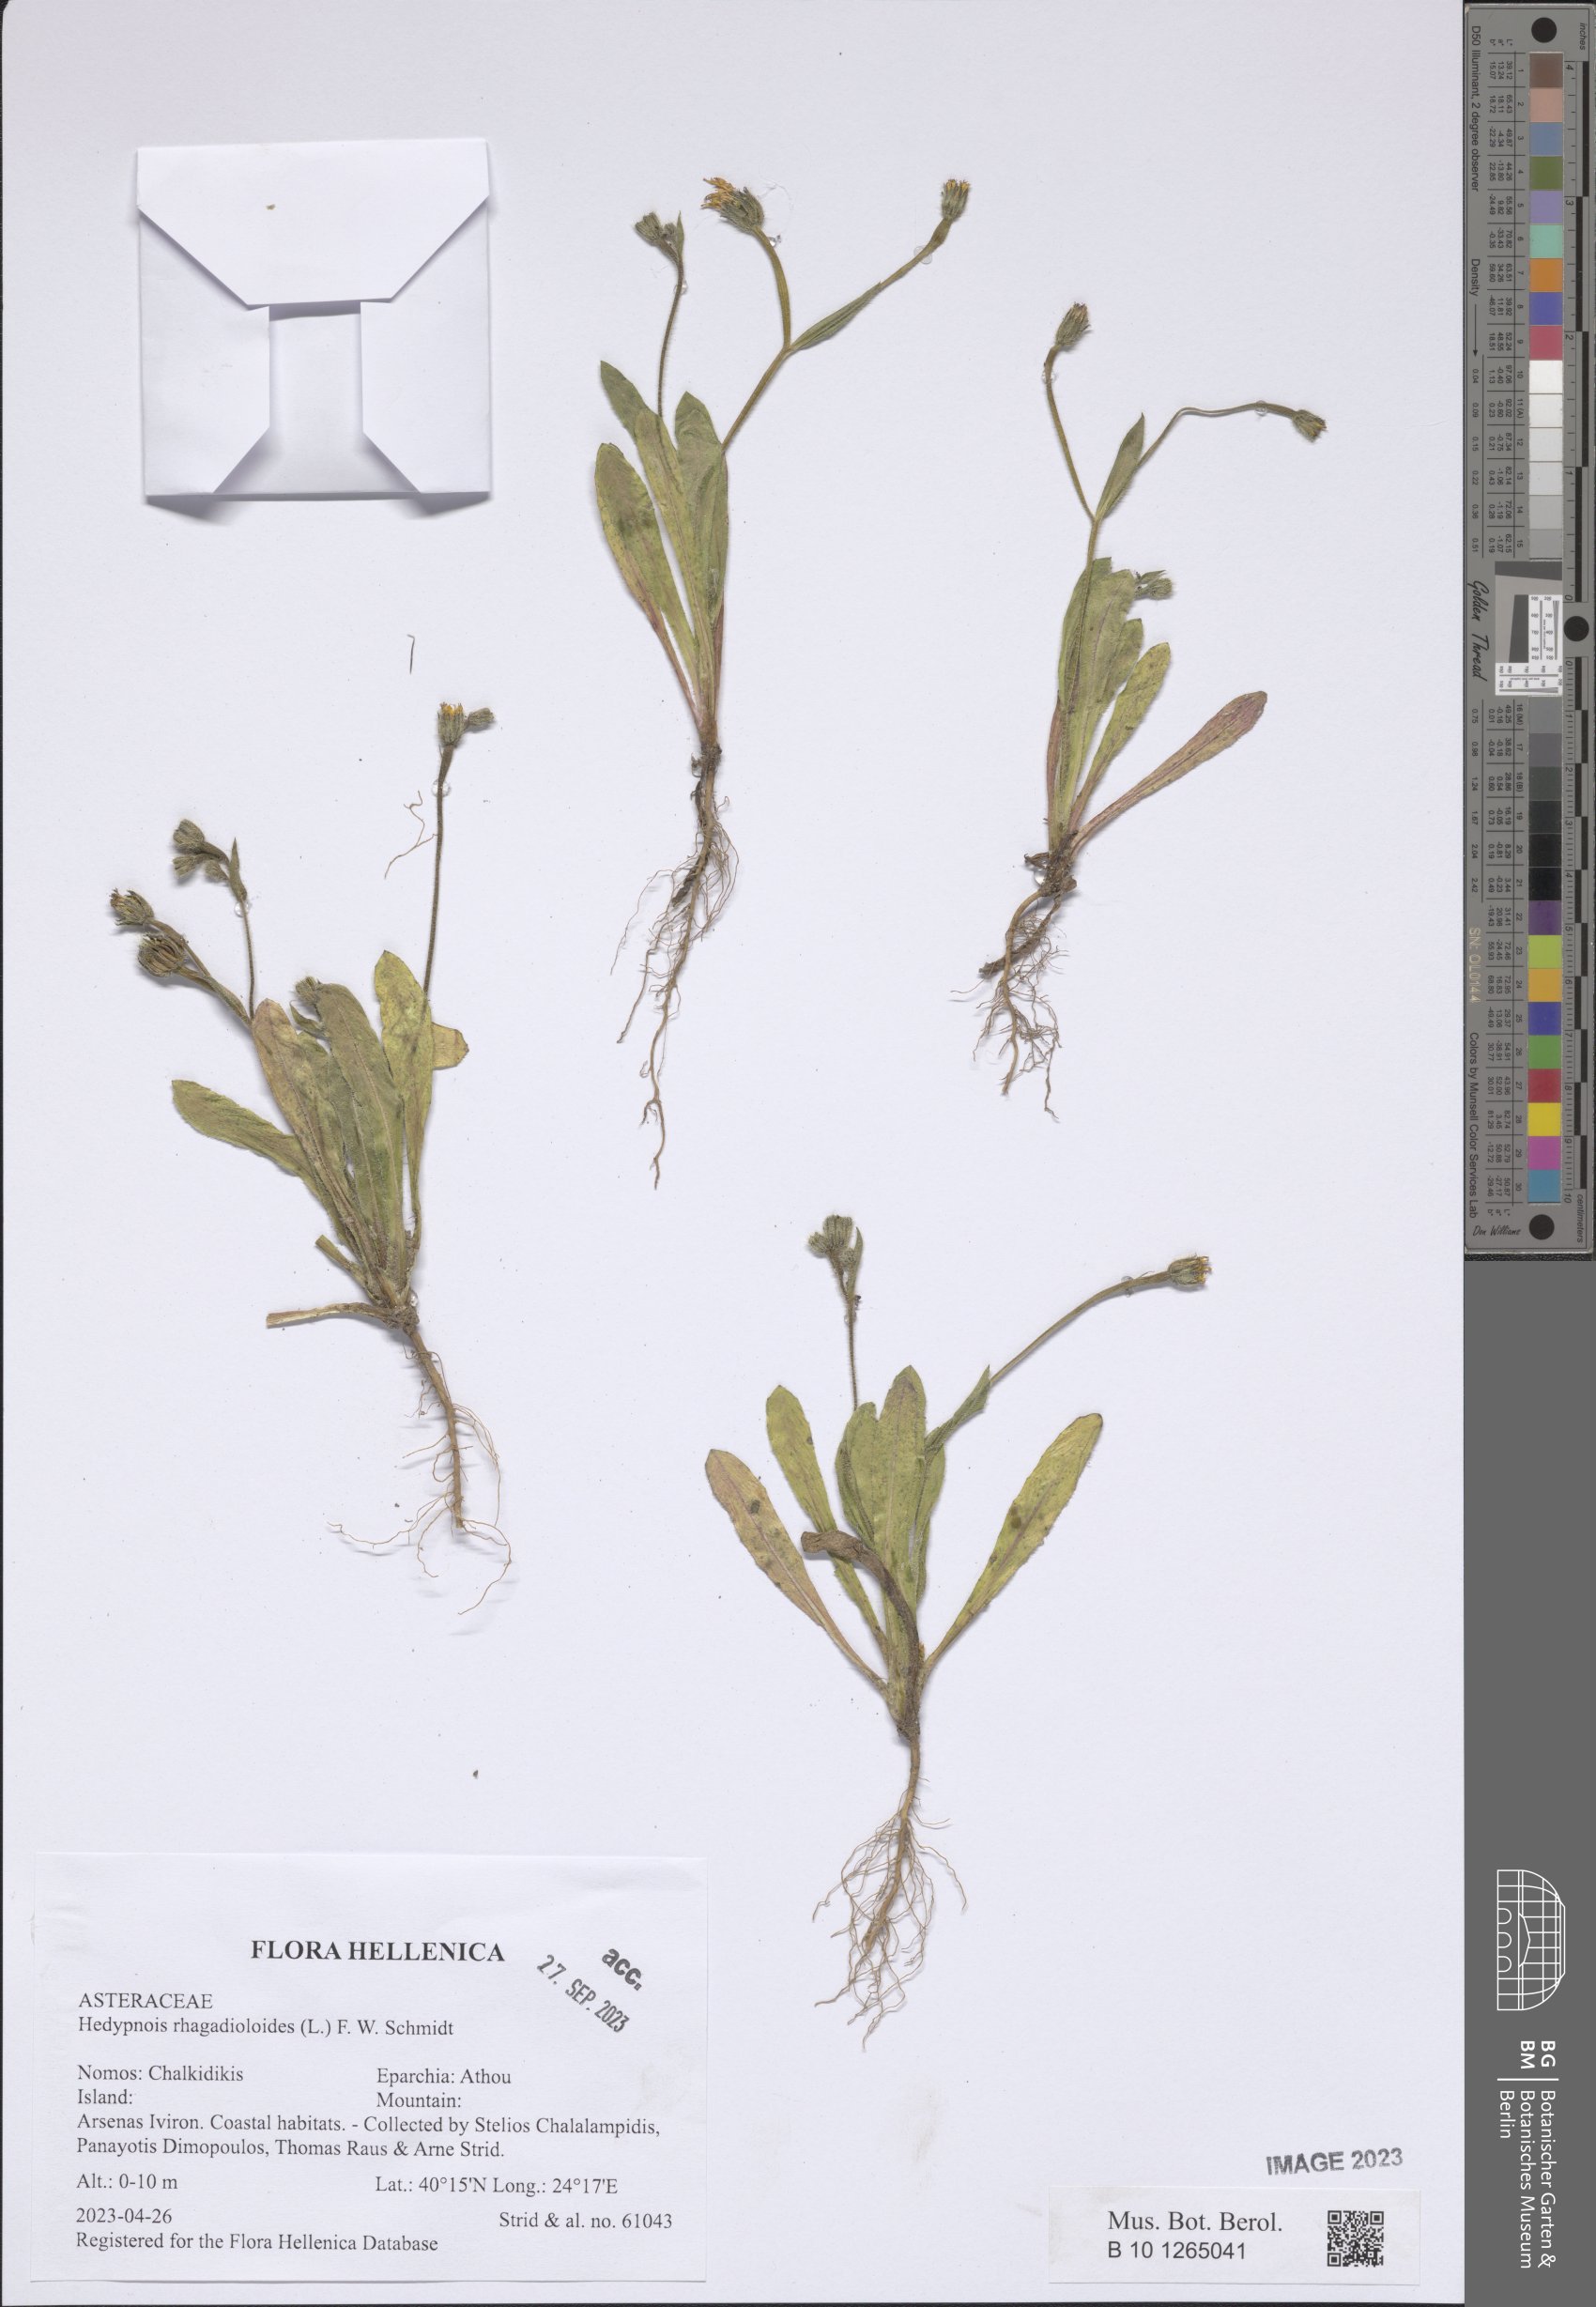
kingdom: Plantae
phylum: Tracheophyta
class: Magnoliopsida
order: Asterales
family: Asteraceae
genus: Hedypnois
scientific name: Hedypnois rhagadioloides
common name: Cretan weed
